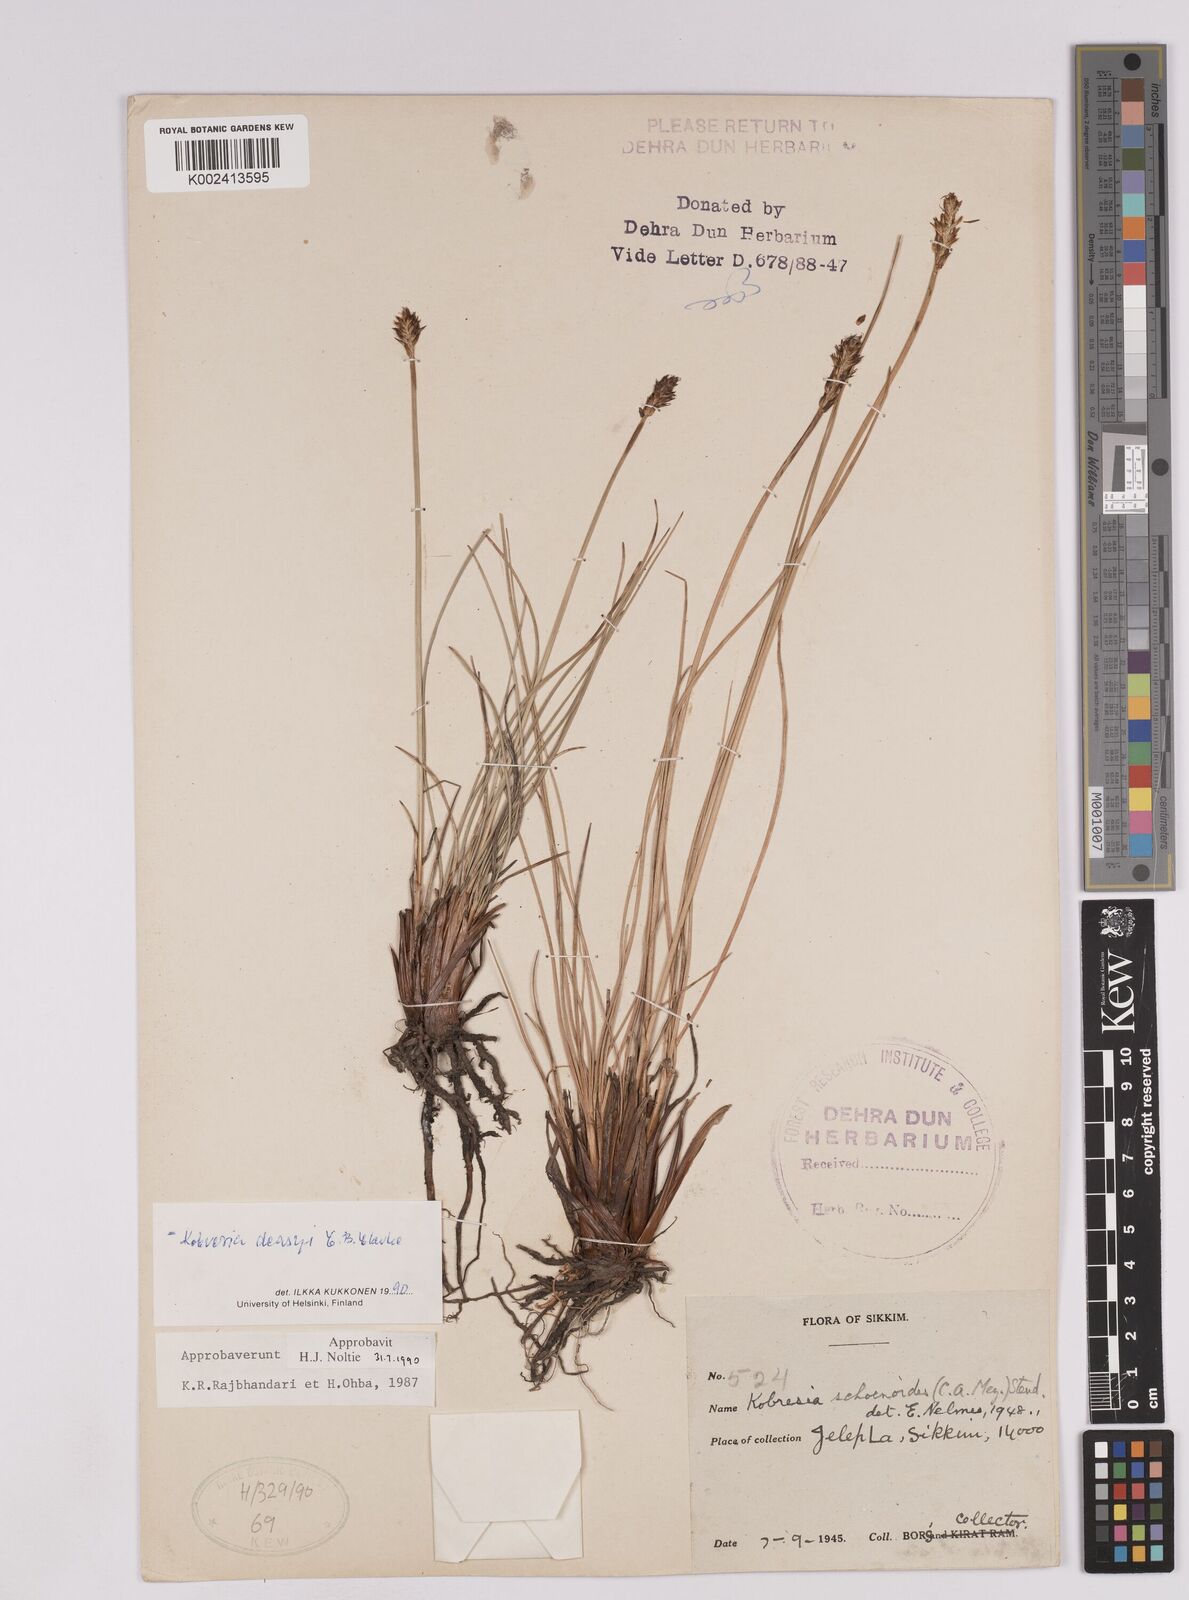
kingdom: Plantae
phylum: Tracheophyta
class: Liliopsida
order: Poales
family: Cyperaceae
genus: Carex
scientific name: Carex deasyi
